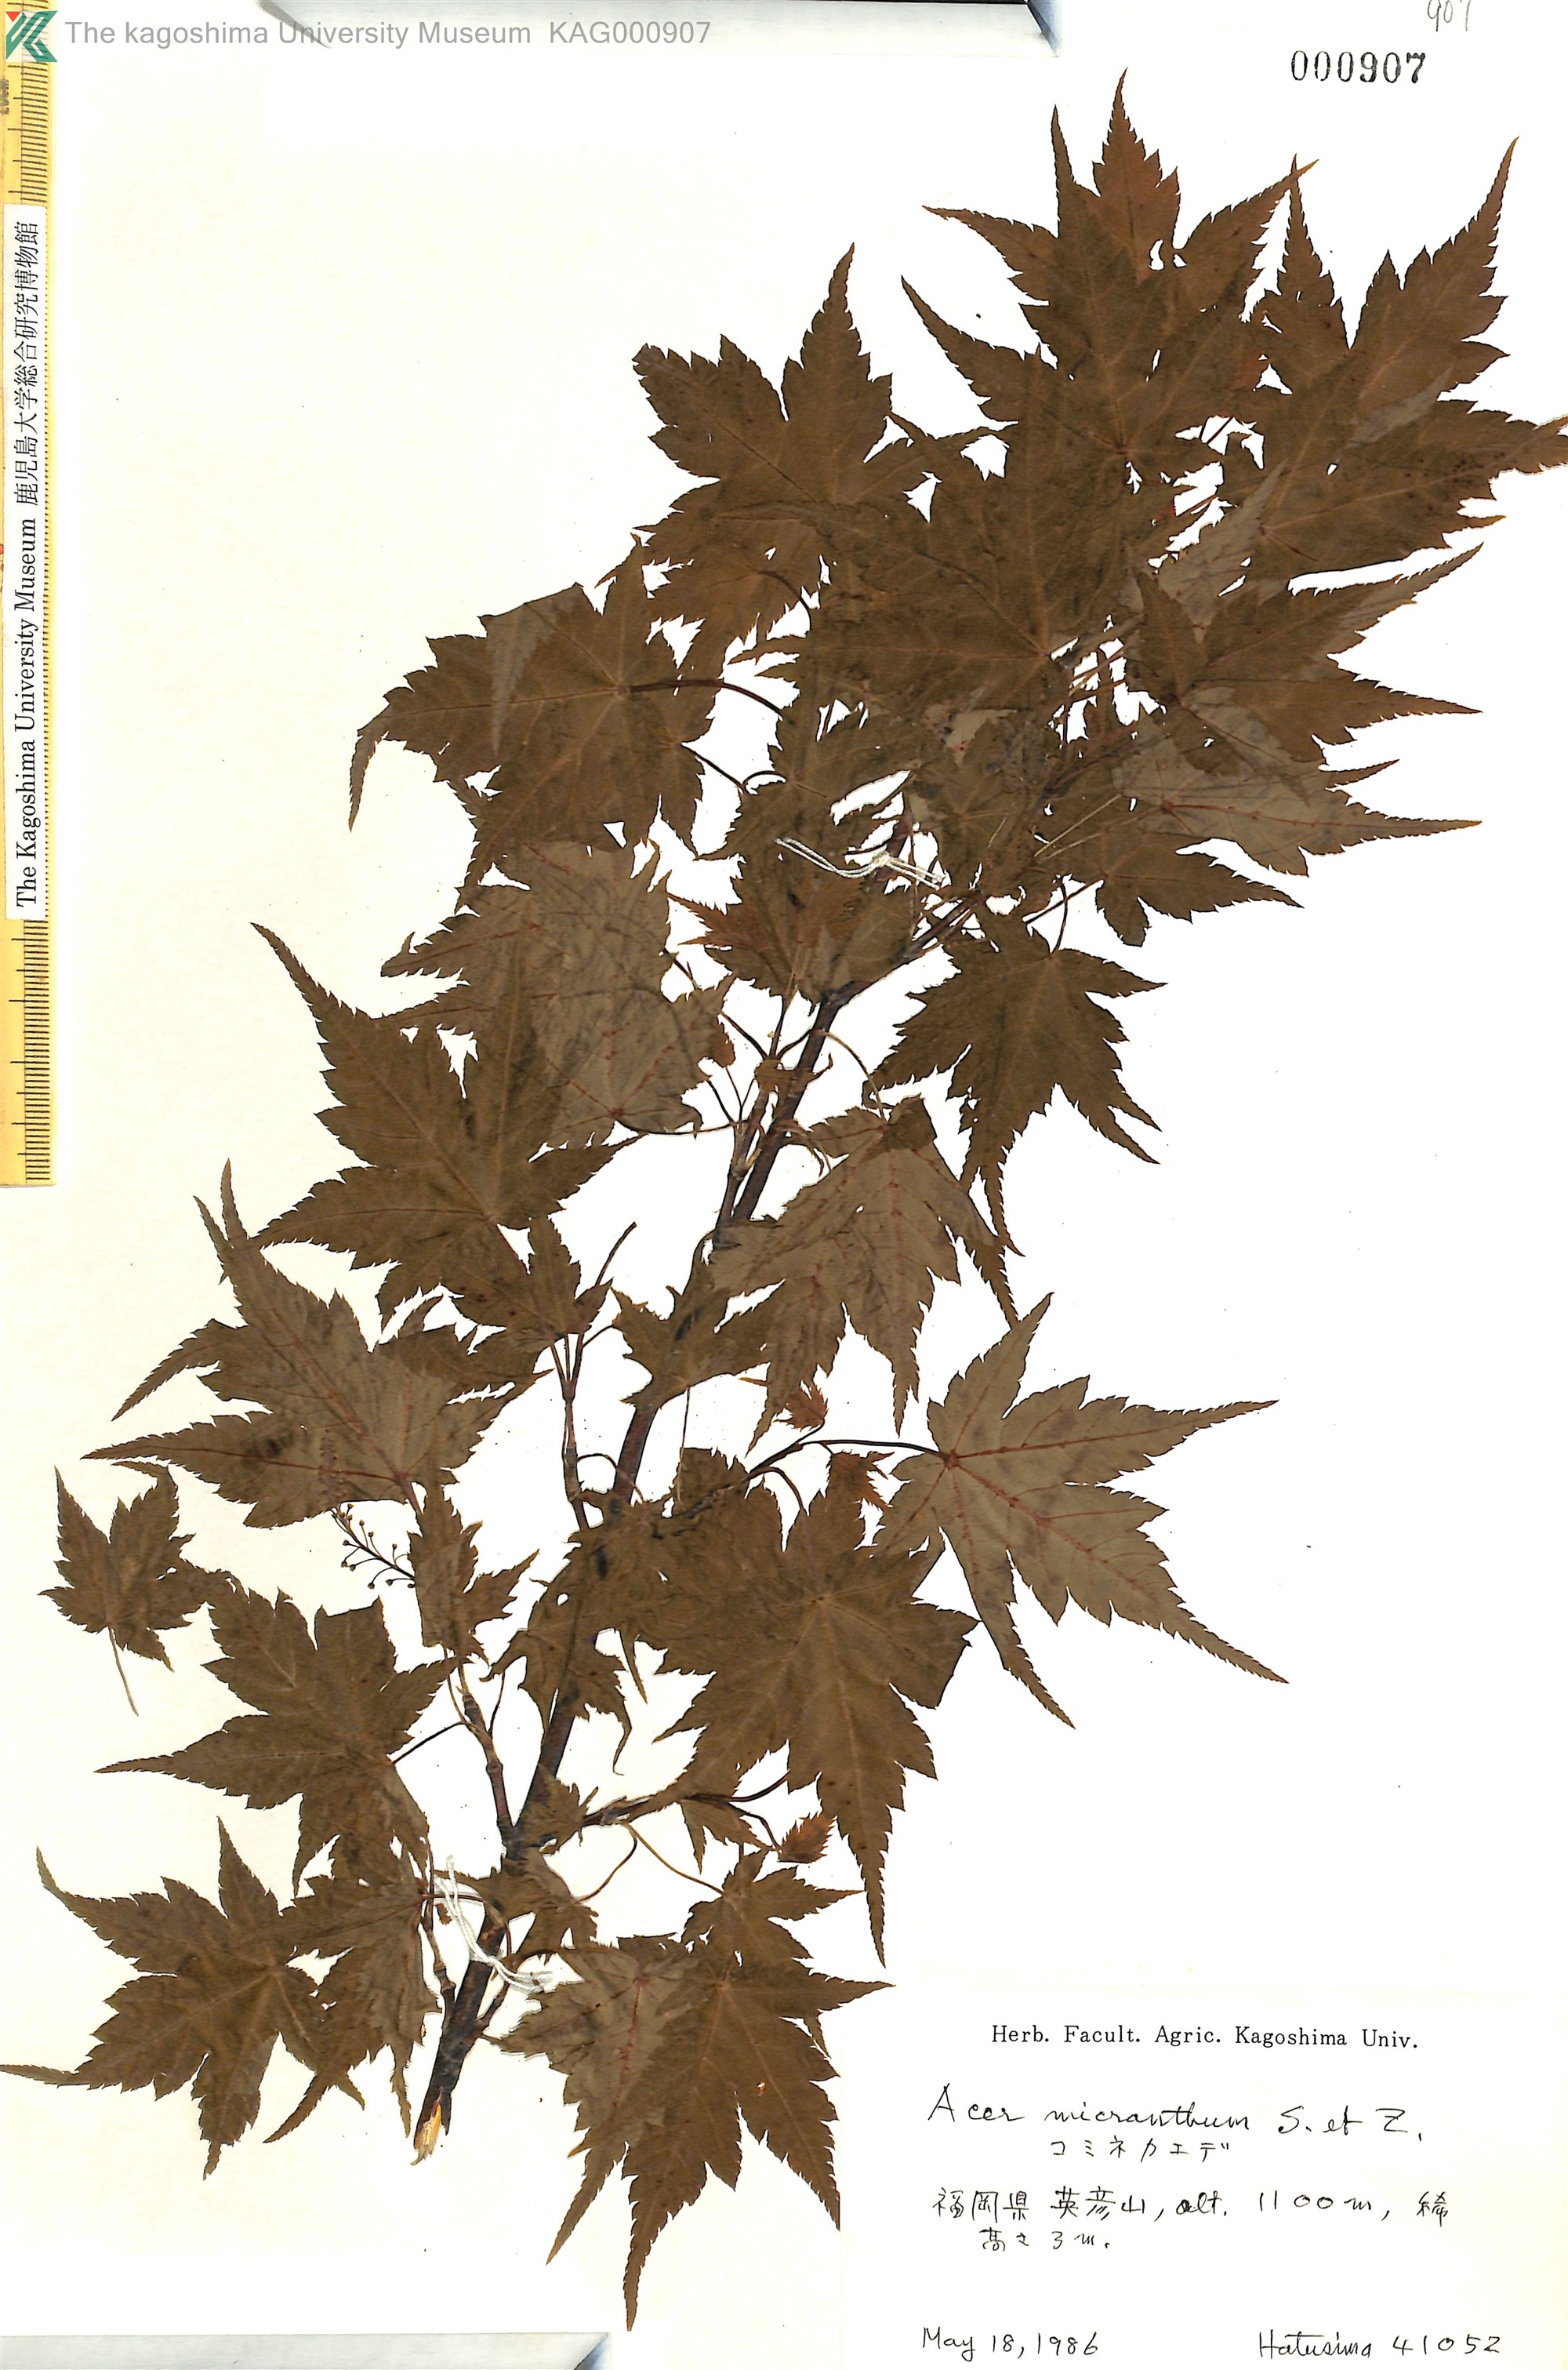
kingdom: Plantae
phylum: Tracheophyta
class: Magnoliopsida
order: Sapindales
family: Sapindaceae
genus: Acer
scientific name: Acer micranthum
